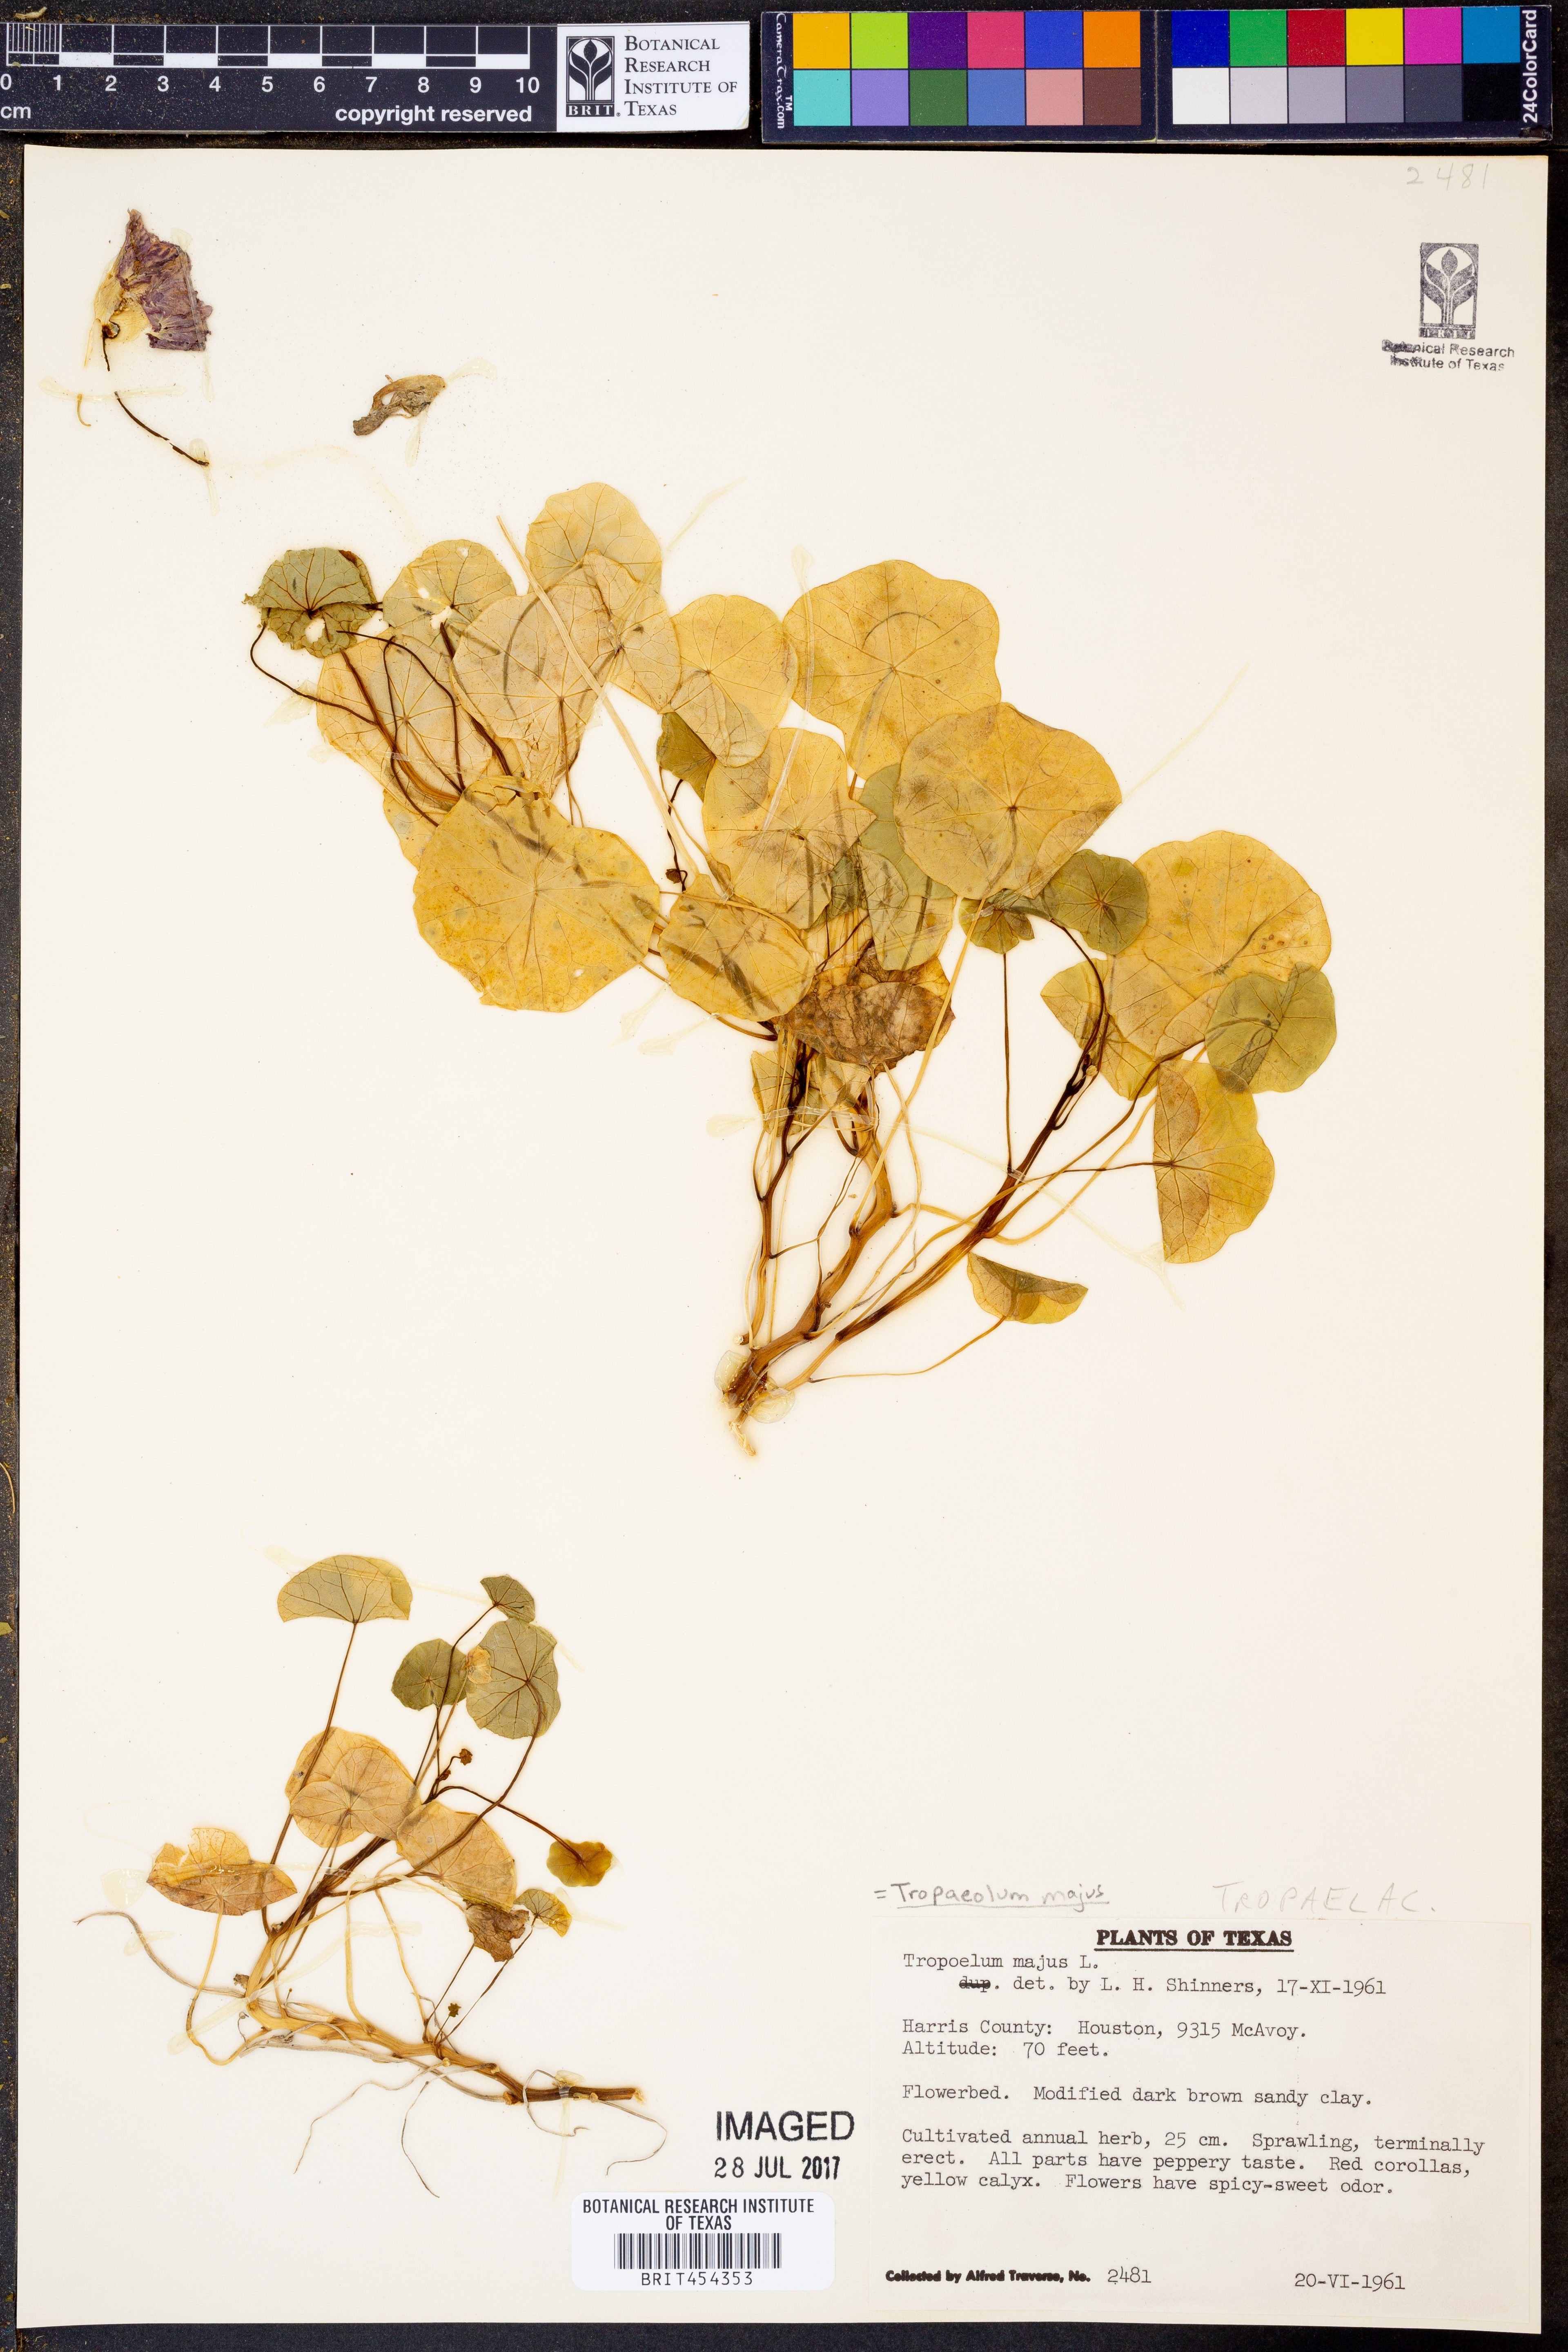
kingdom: Plantae
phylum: Tracheophyta
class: Magnoliopsida
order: Brassicales
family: Tropaeolaceae
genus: Tropaeolum
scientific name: Tropaeolum majus
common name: Nasturtium
